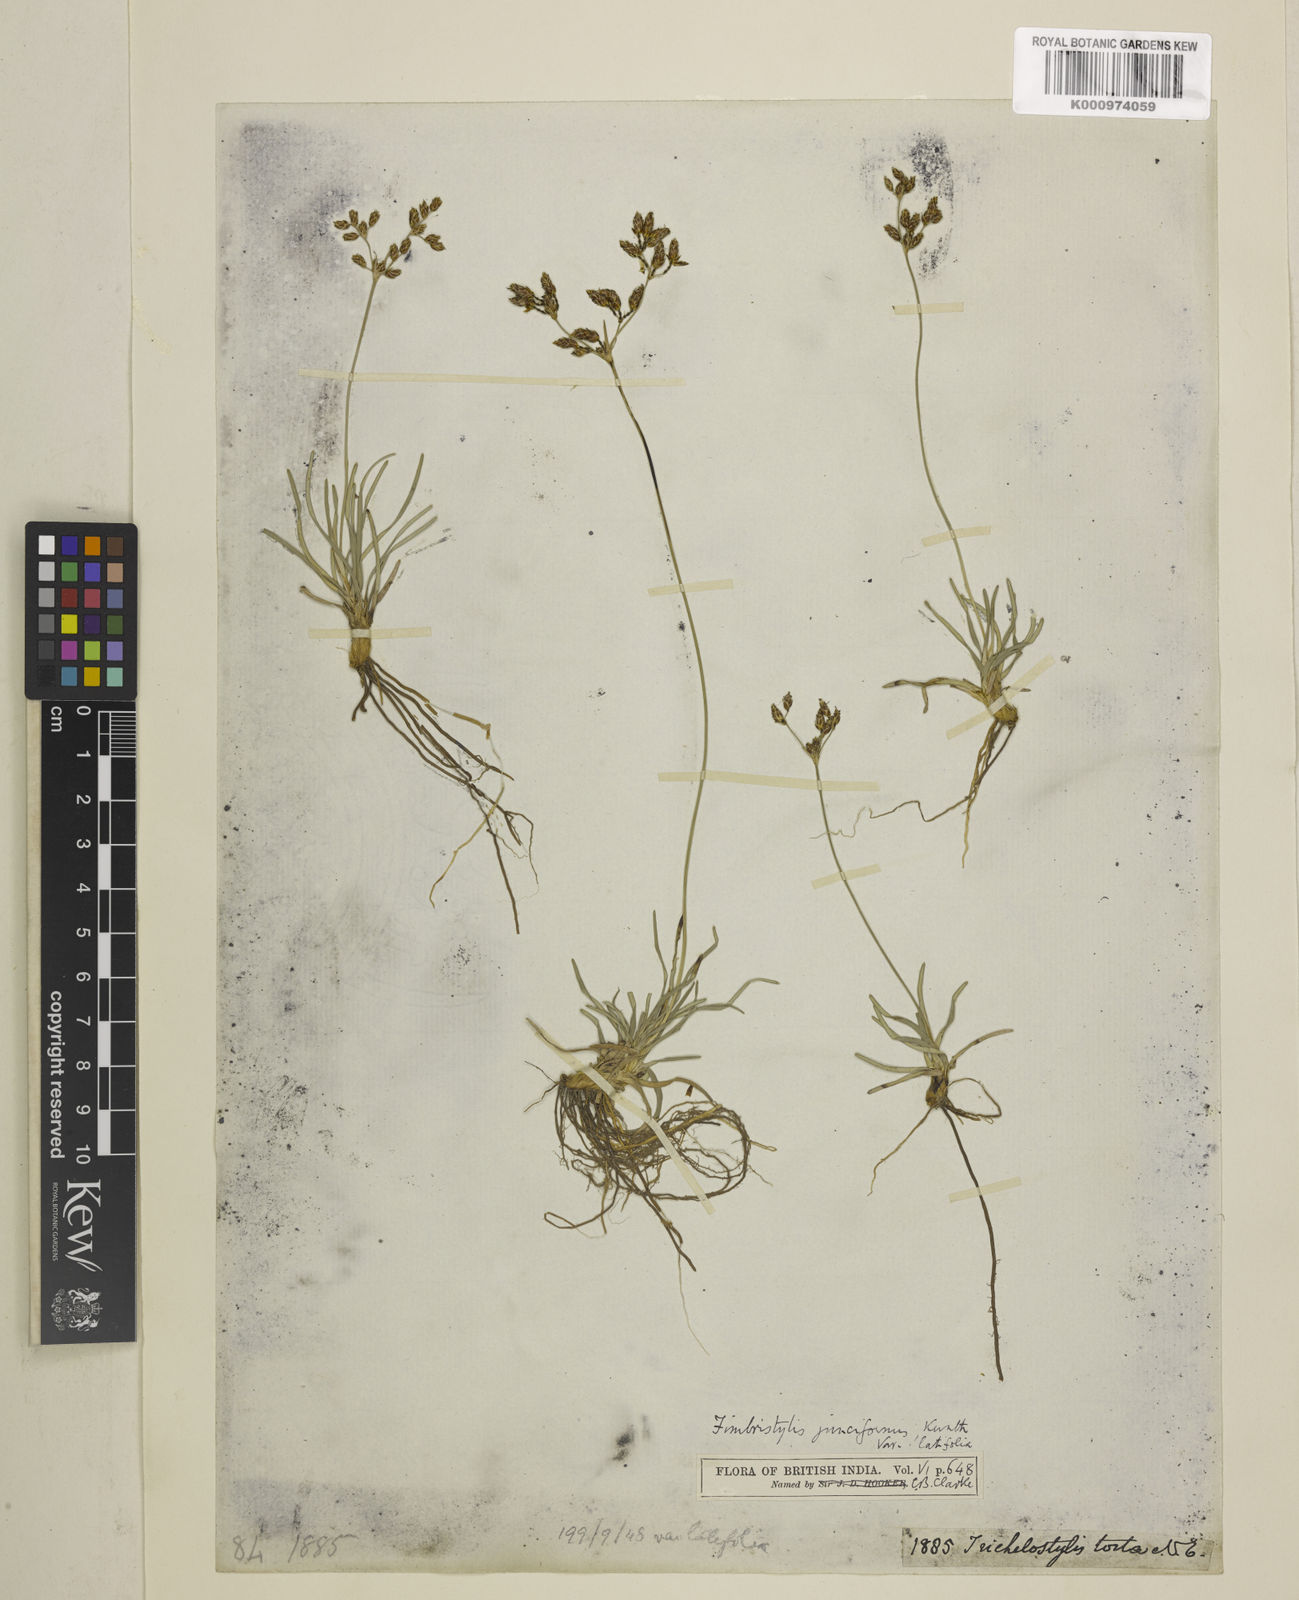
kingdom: Plantae
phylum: Tracheophyta
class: Liliopsida
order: Poales
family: Cyperaceae
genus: Fimbristylis
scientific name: Fimbristylis falcata
